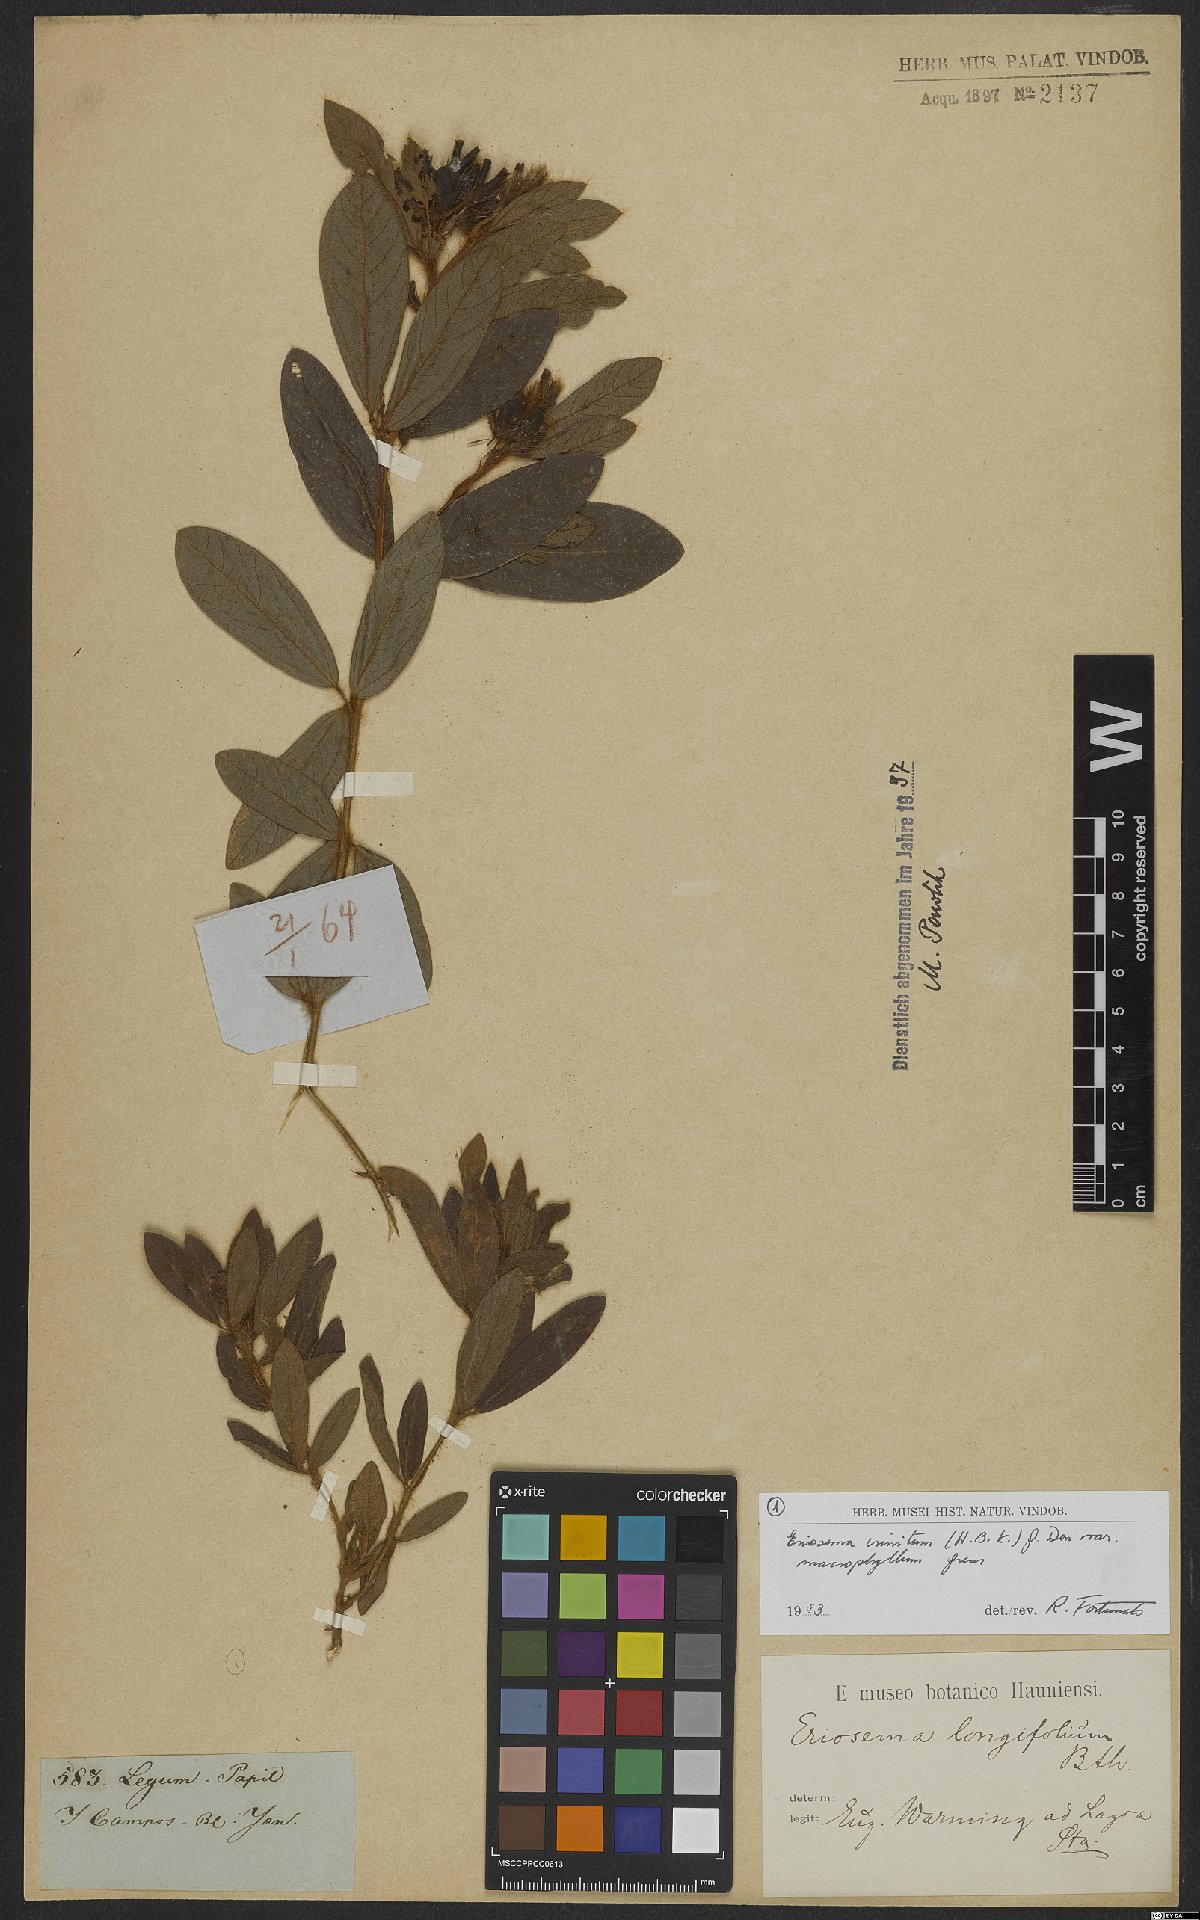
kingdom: Plantae
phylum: Tracheophyta
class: Magnoliopsida
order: Fabales
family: Fabaceae
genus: Eriosema
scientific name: Eriosema campestre
